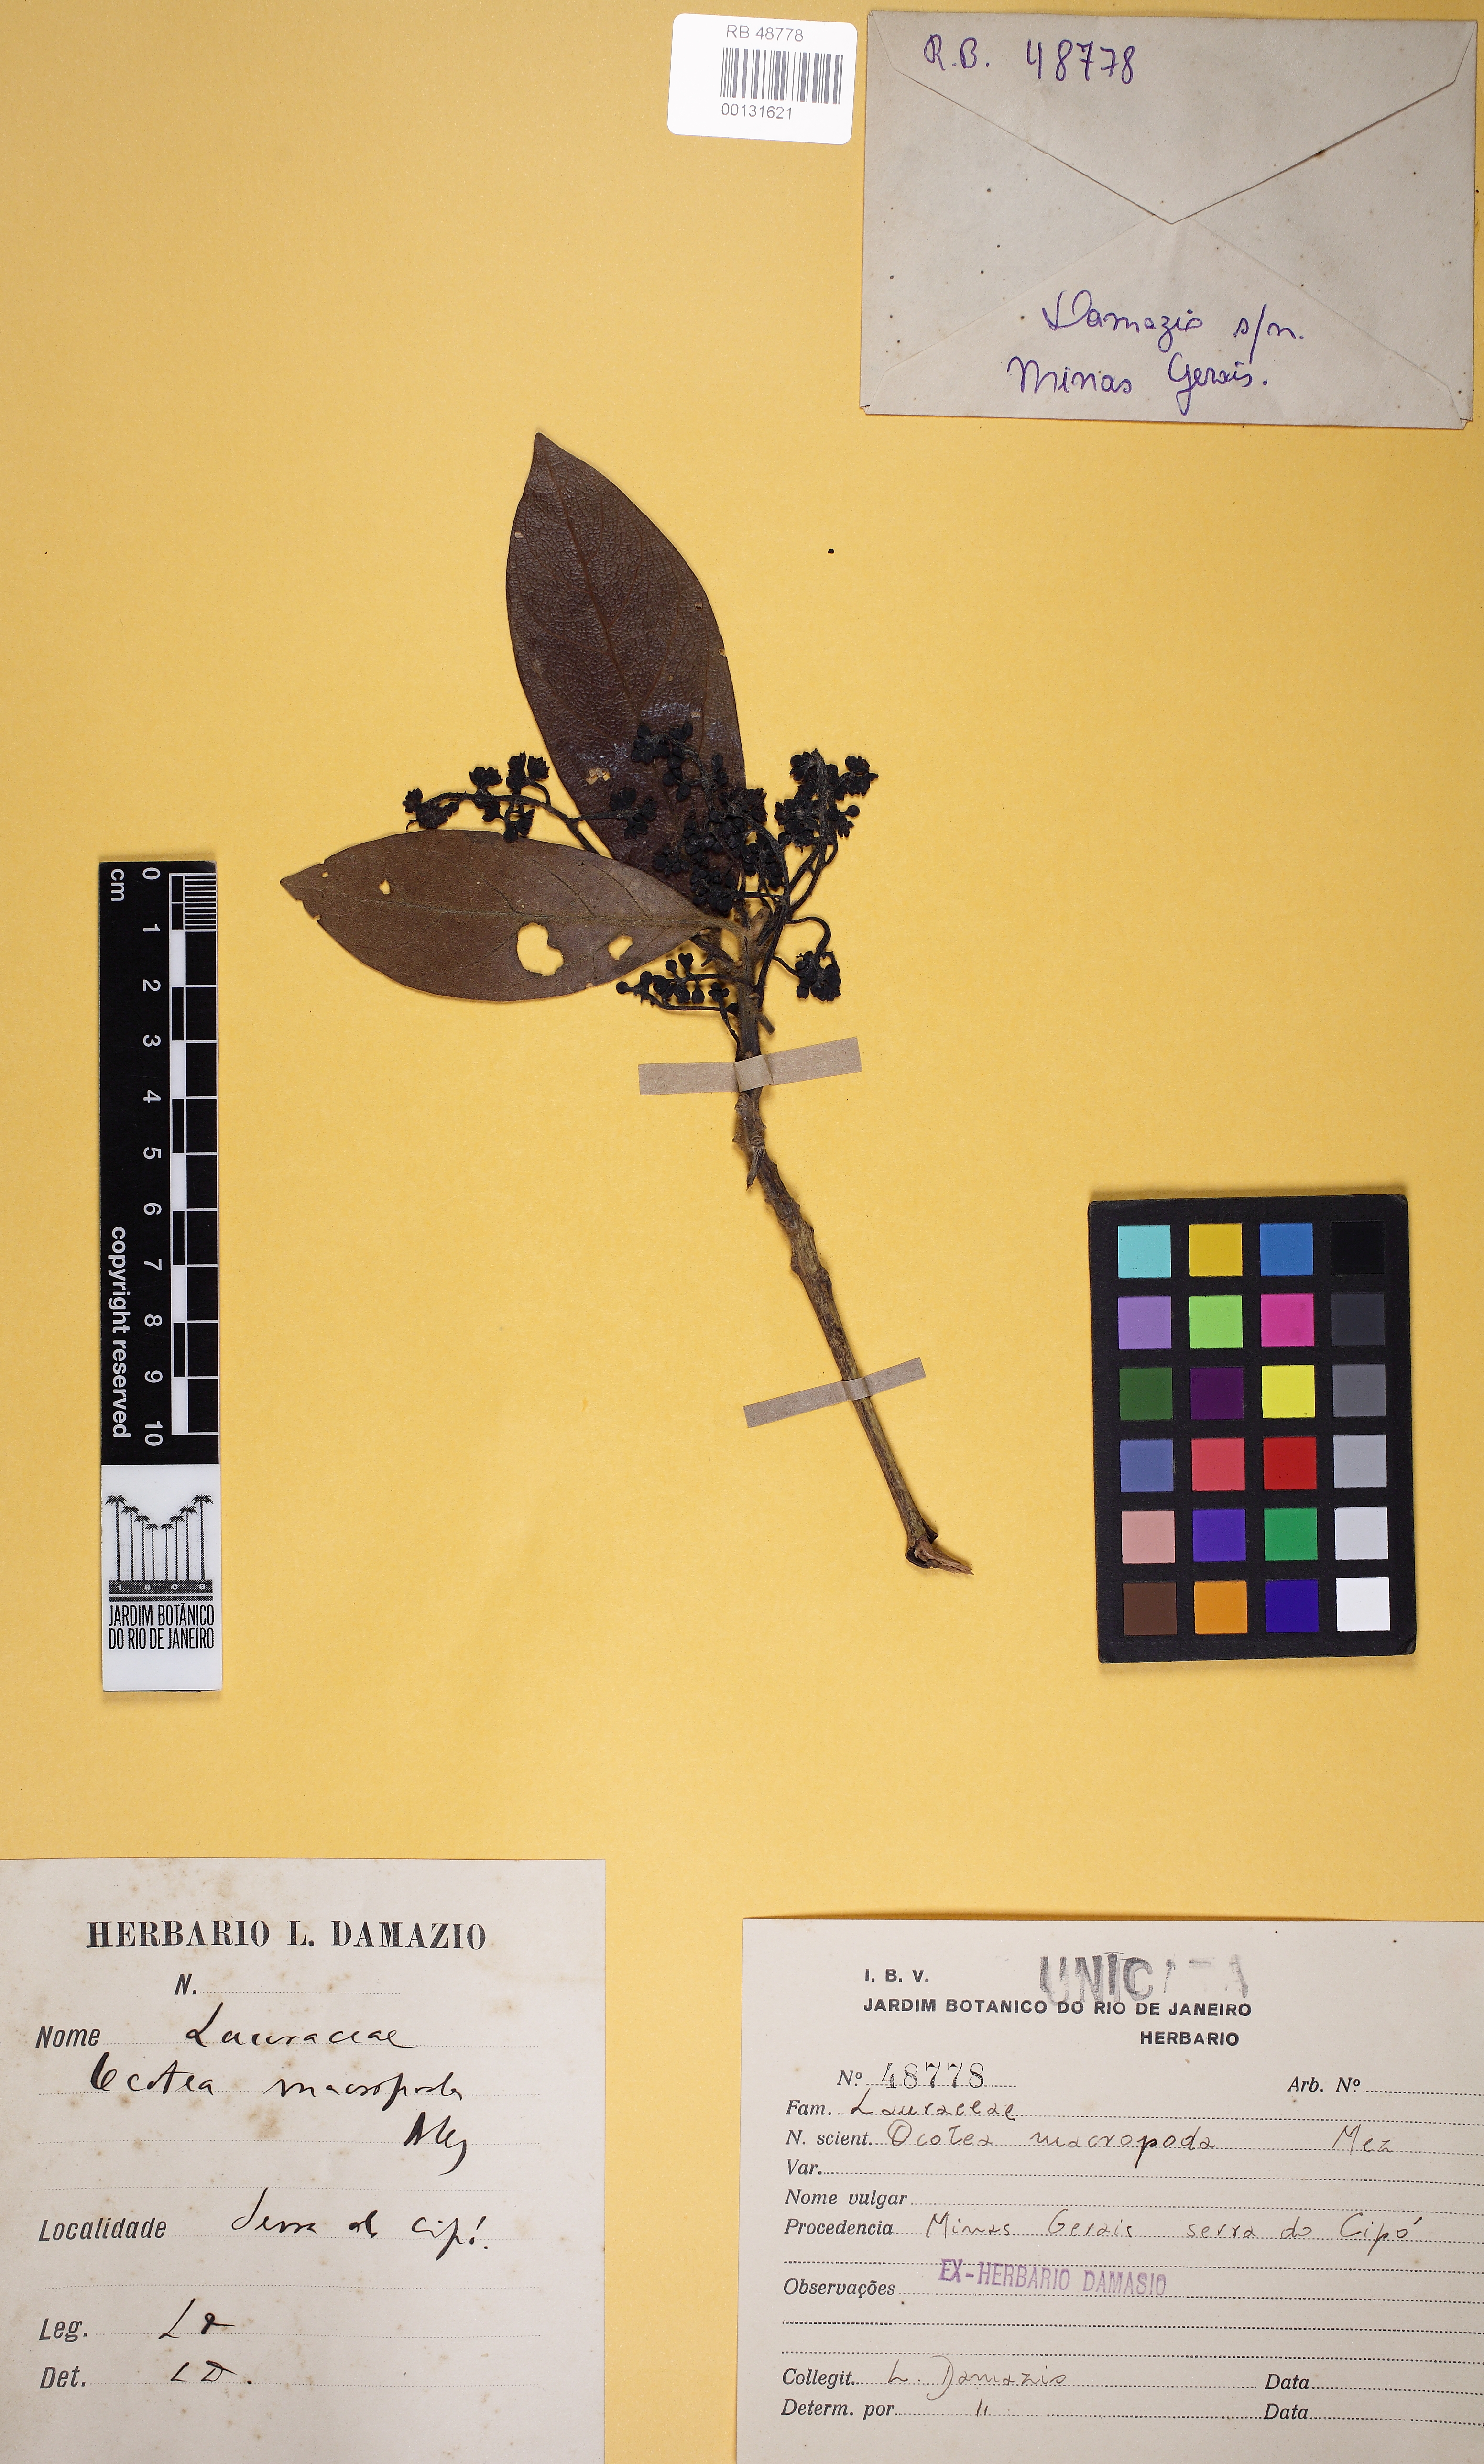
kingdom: Plantae
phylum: Tracheophyta
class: Magnoliopsida
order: Laurales
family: Lauraceae
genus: Ocotea
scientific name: Ocotea macropoda
